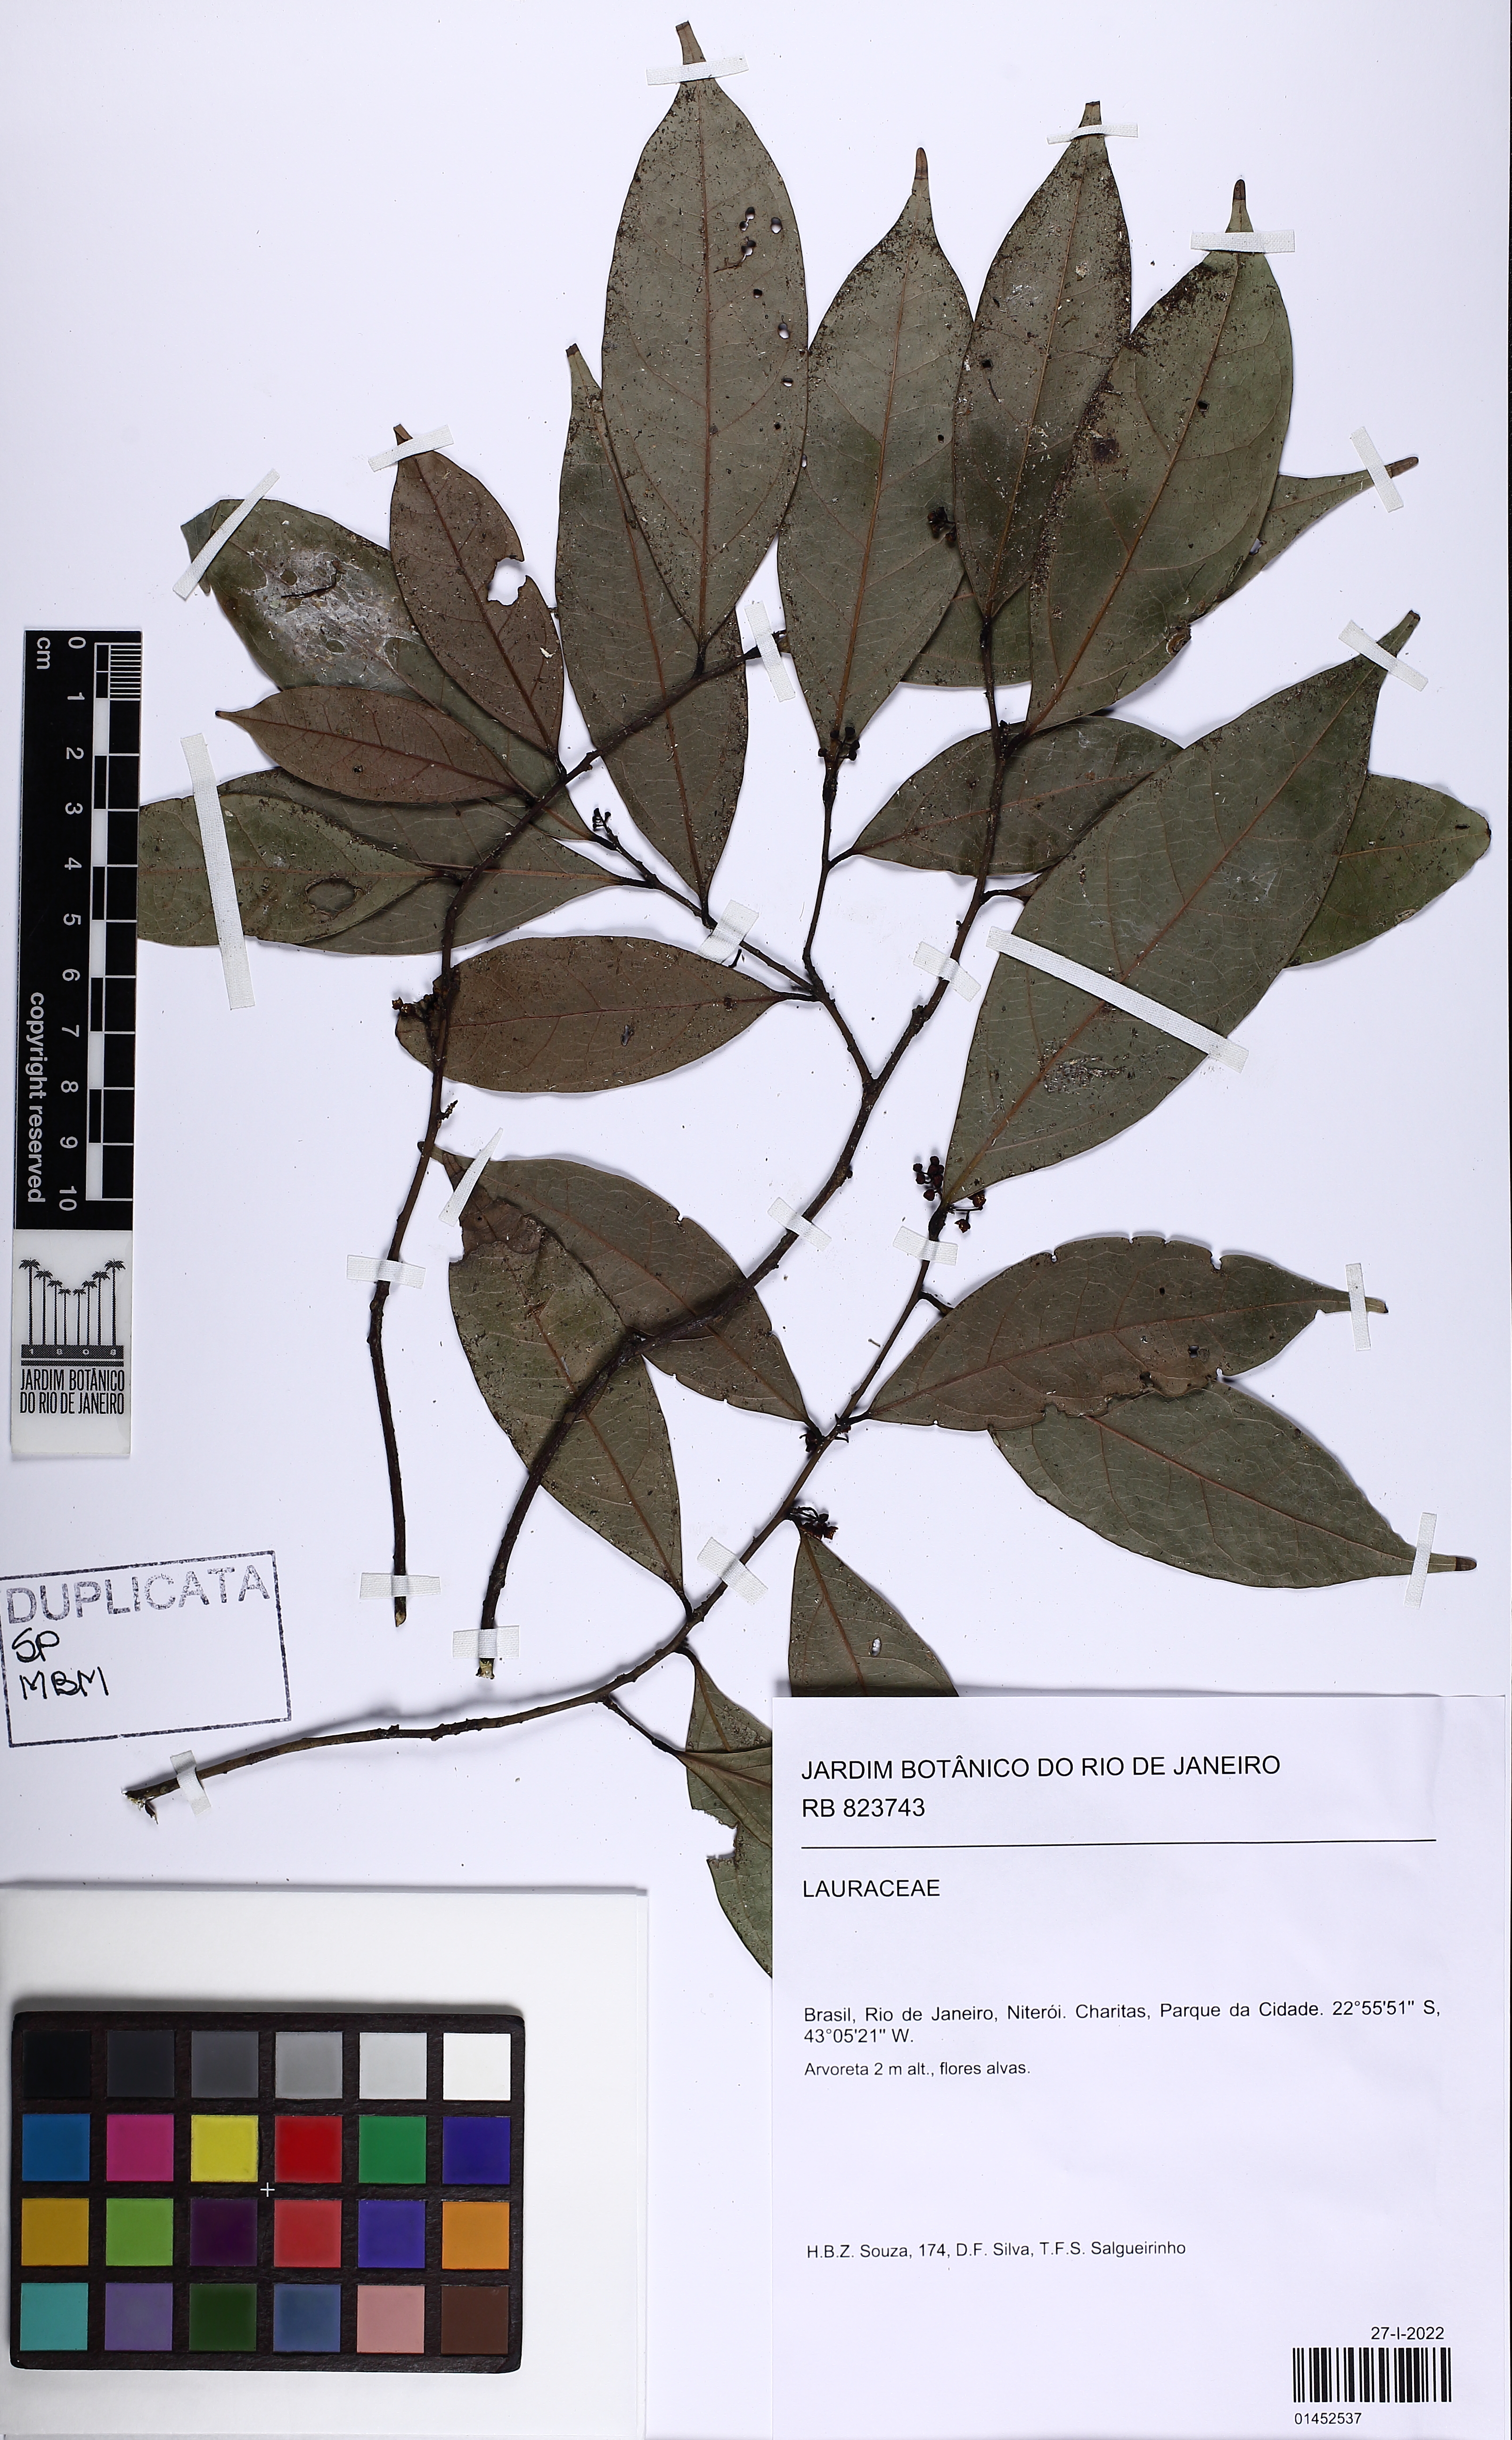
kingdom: Plantae
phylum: Tracheophyta
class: Magnoliopsida
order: Laurales
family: Lauraceae
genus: Ocotea
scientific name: Ocotea aniboides
